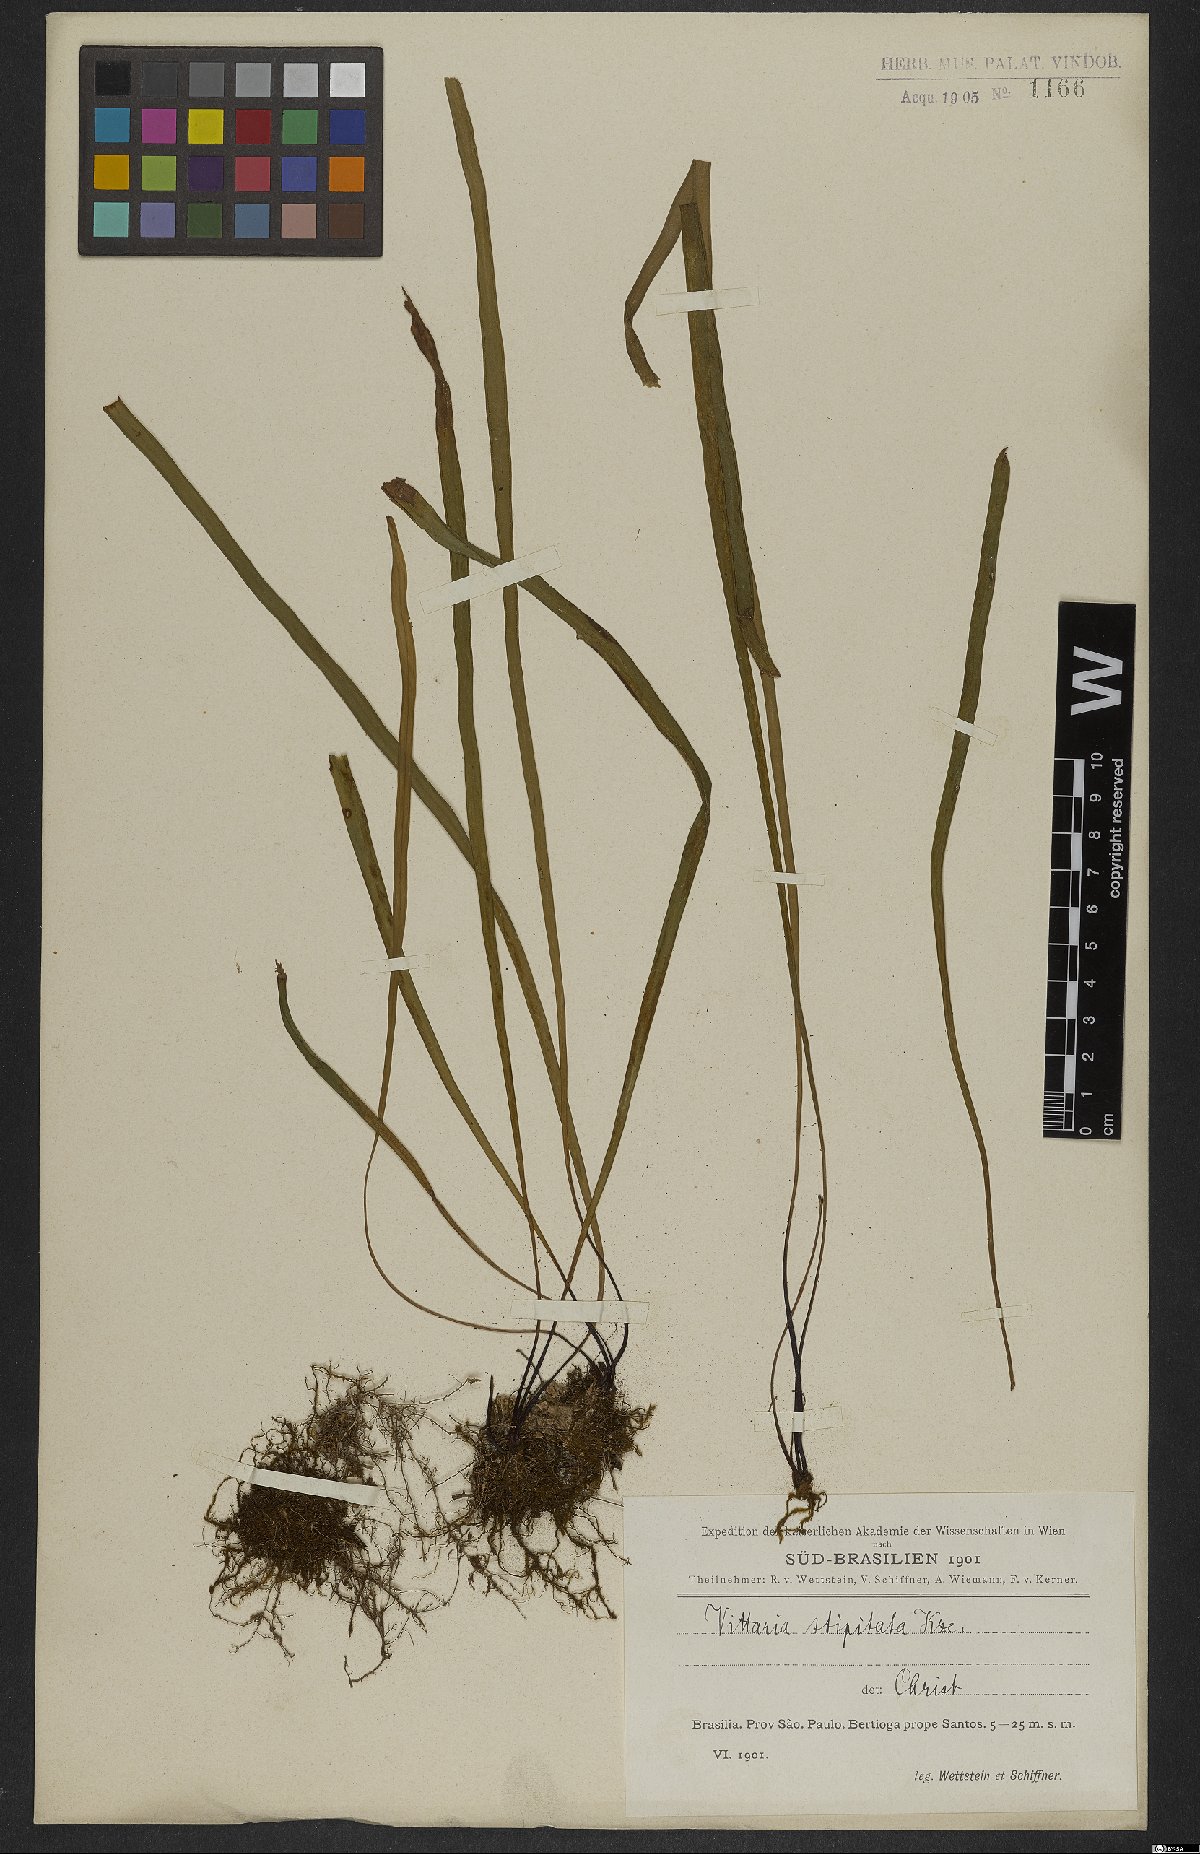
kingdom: Plantae
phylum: Tracheophyta
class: Polypodiopsida
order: Polypodiales
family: Pteridaceae
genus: Radiovittaria
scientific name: Radiovittaria stipitata
